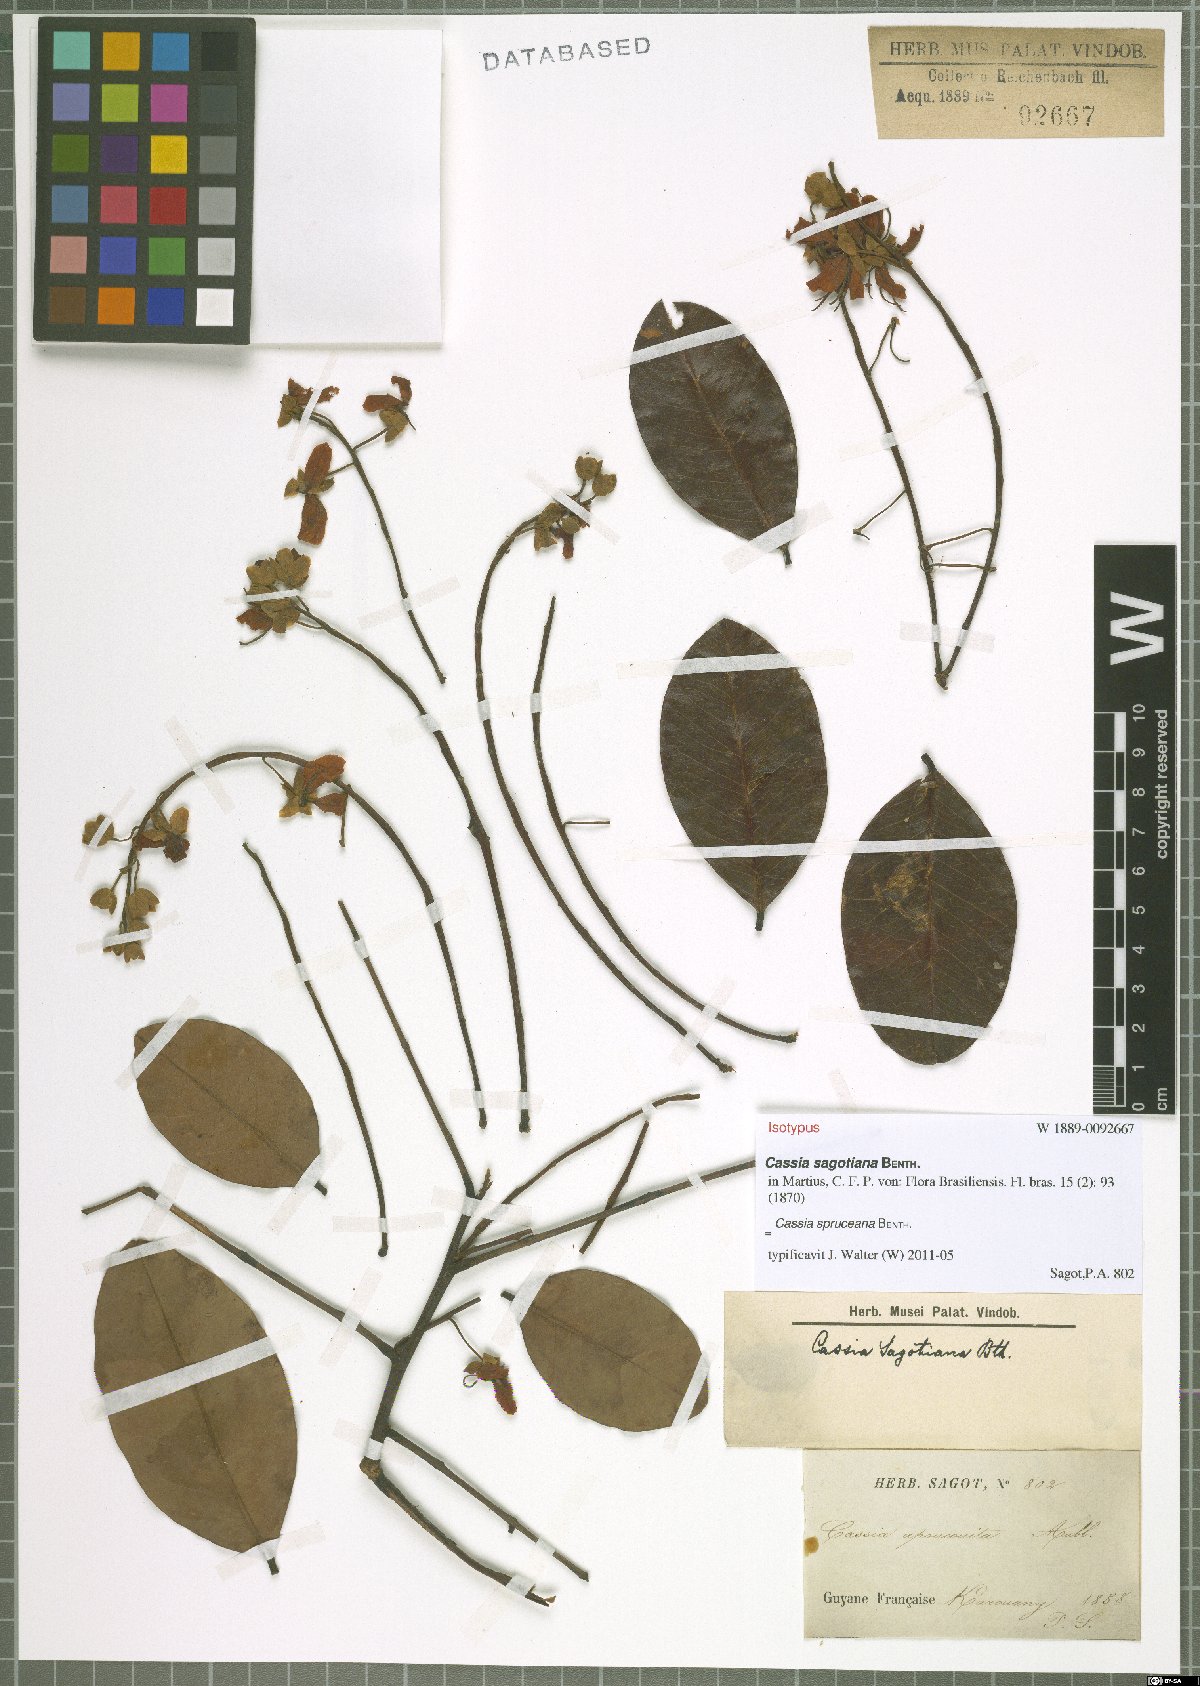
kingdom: Plantae
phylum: Tracheophyta
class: Magnoliopsida
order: Fabales
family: Fabaceae
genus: Cassia
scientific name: Cassia spruceana
